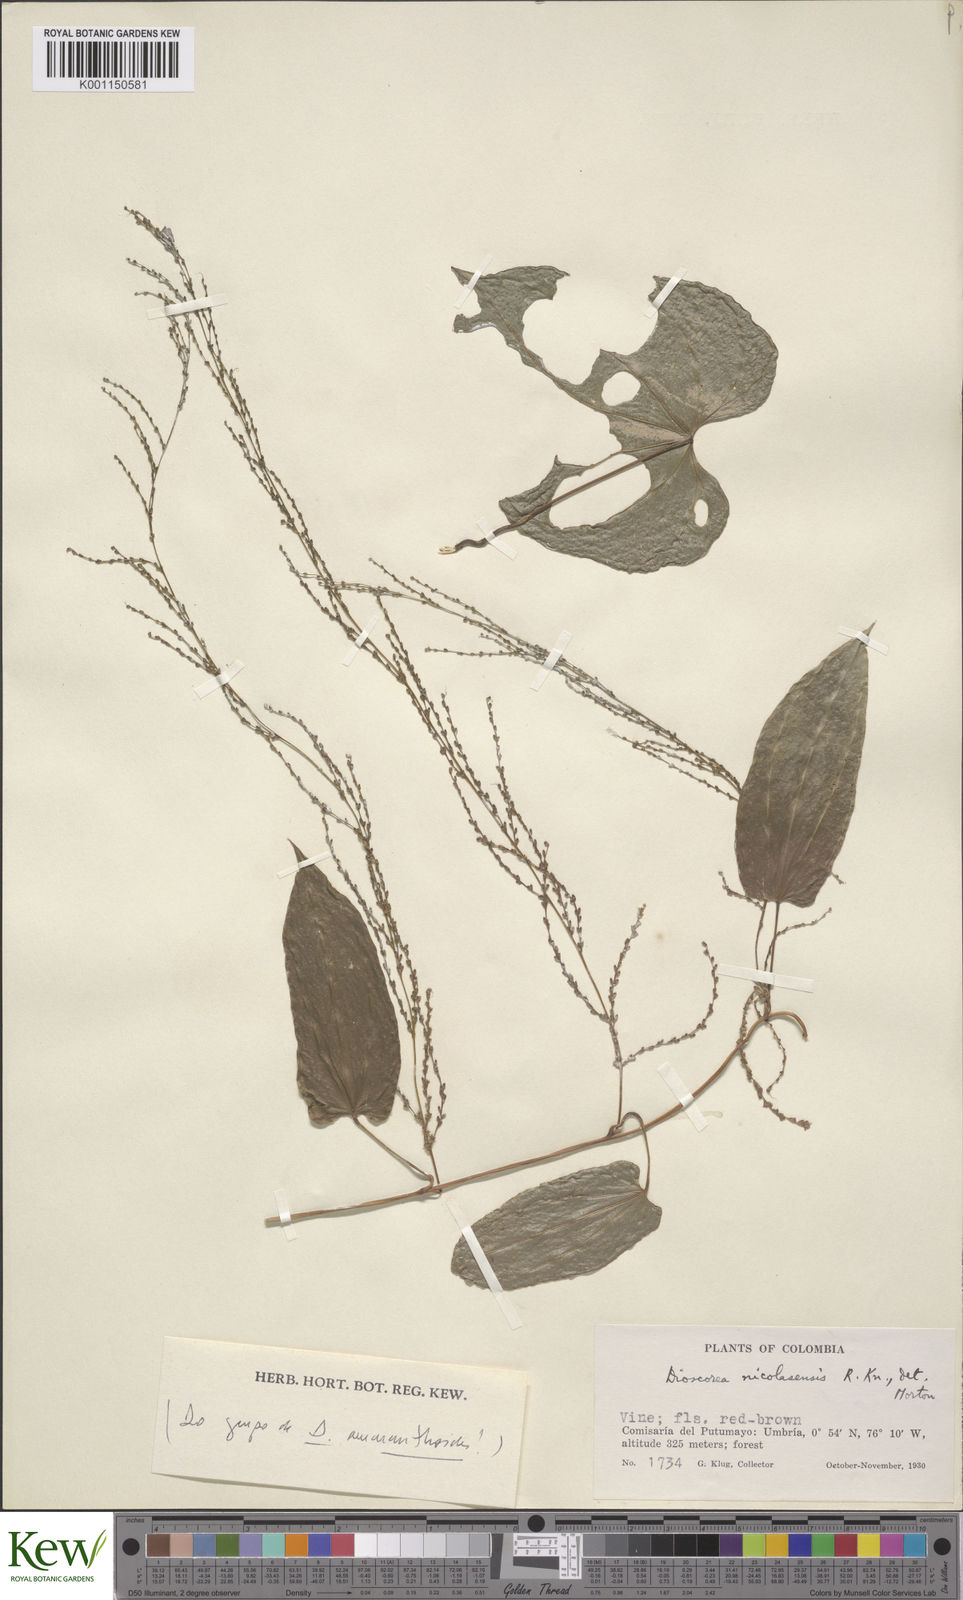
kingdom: Plantae
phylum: Tracheophyta
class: Liliopsida
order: Dioscoreales
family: Dioscoreaceae
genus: Dioscorea
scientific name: Dioscorea nicolasensis
